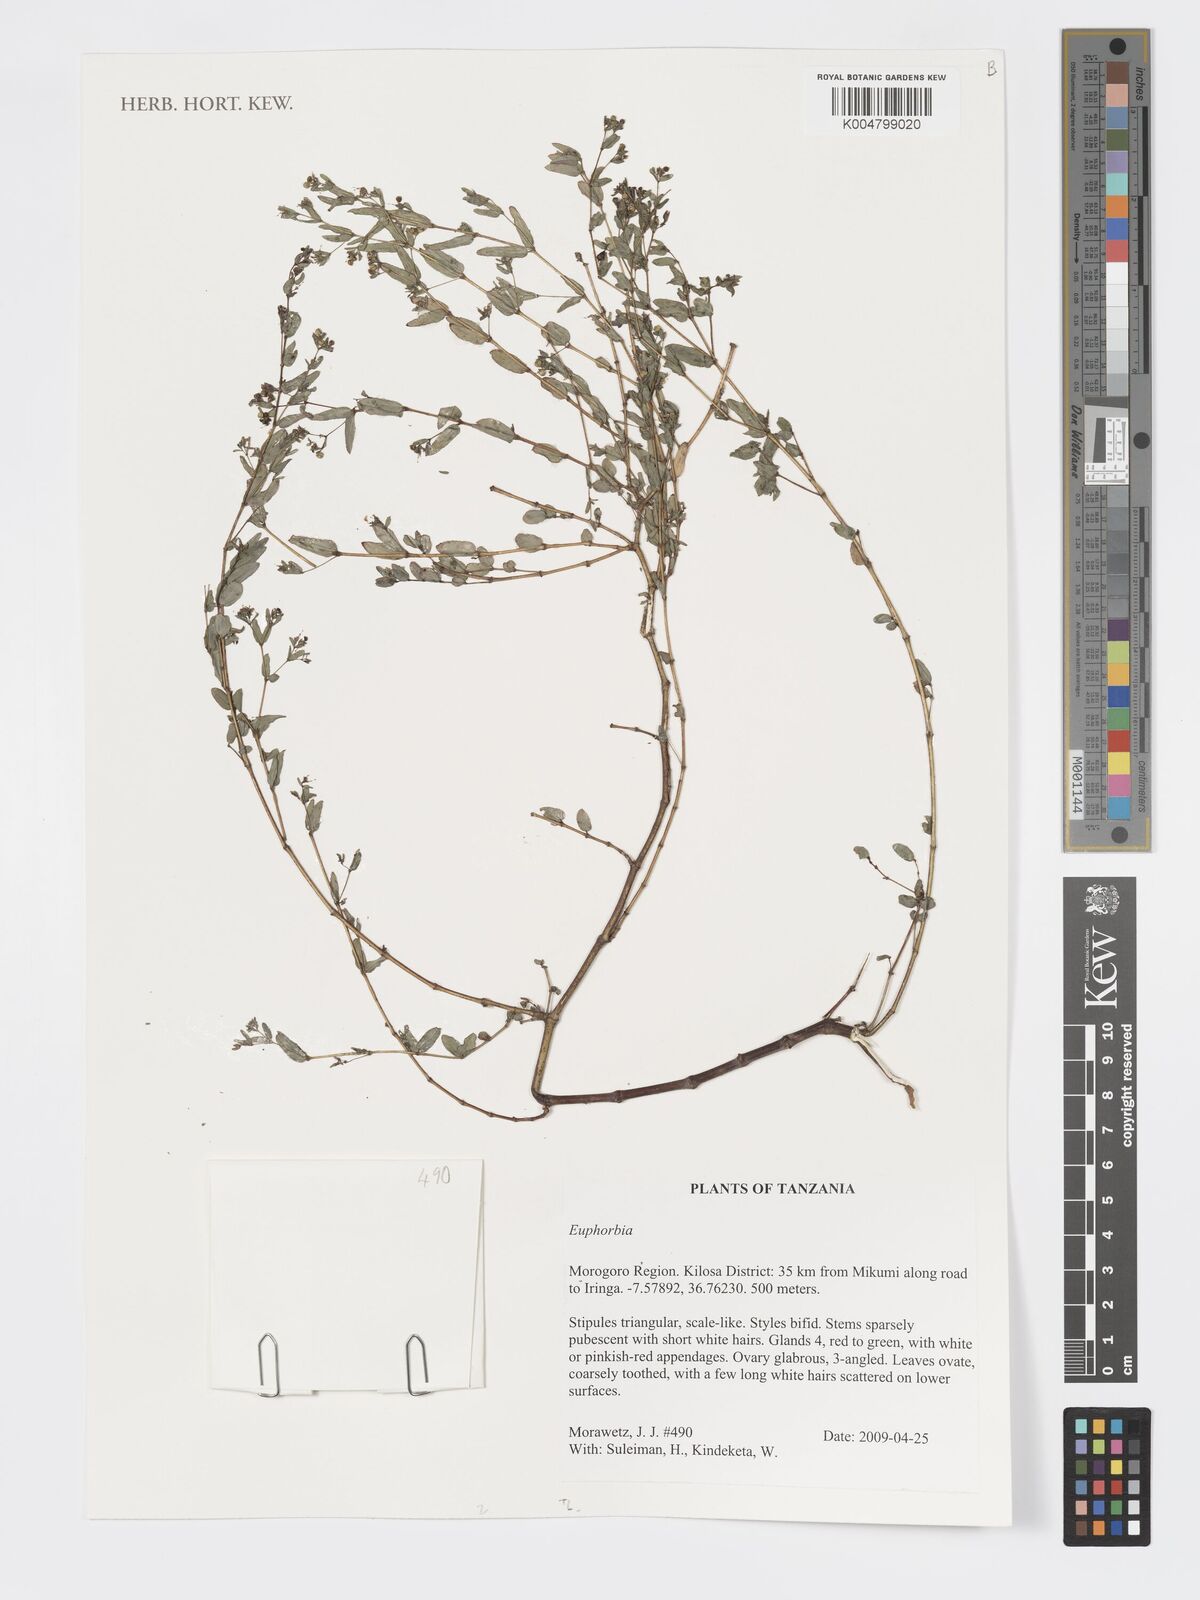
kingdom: Plantae
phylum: Tracheophyta
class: Magnoliopsida
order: Malpighiales
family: Euphorbiaceae
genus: Euphorbia
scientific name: Euphorbia
